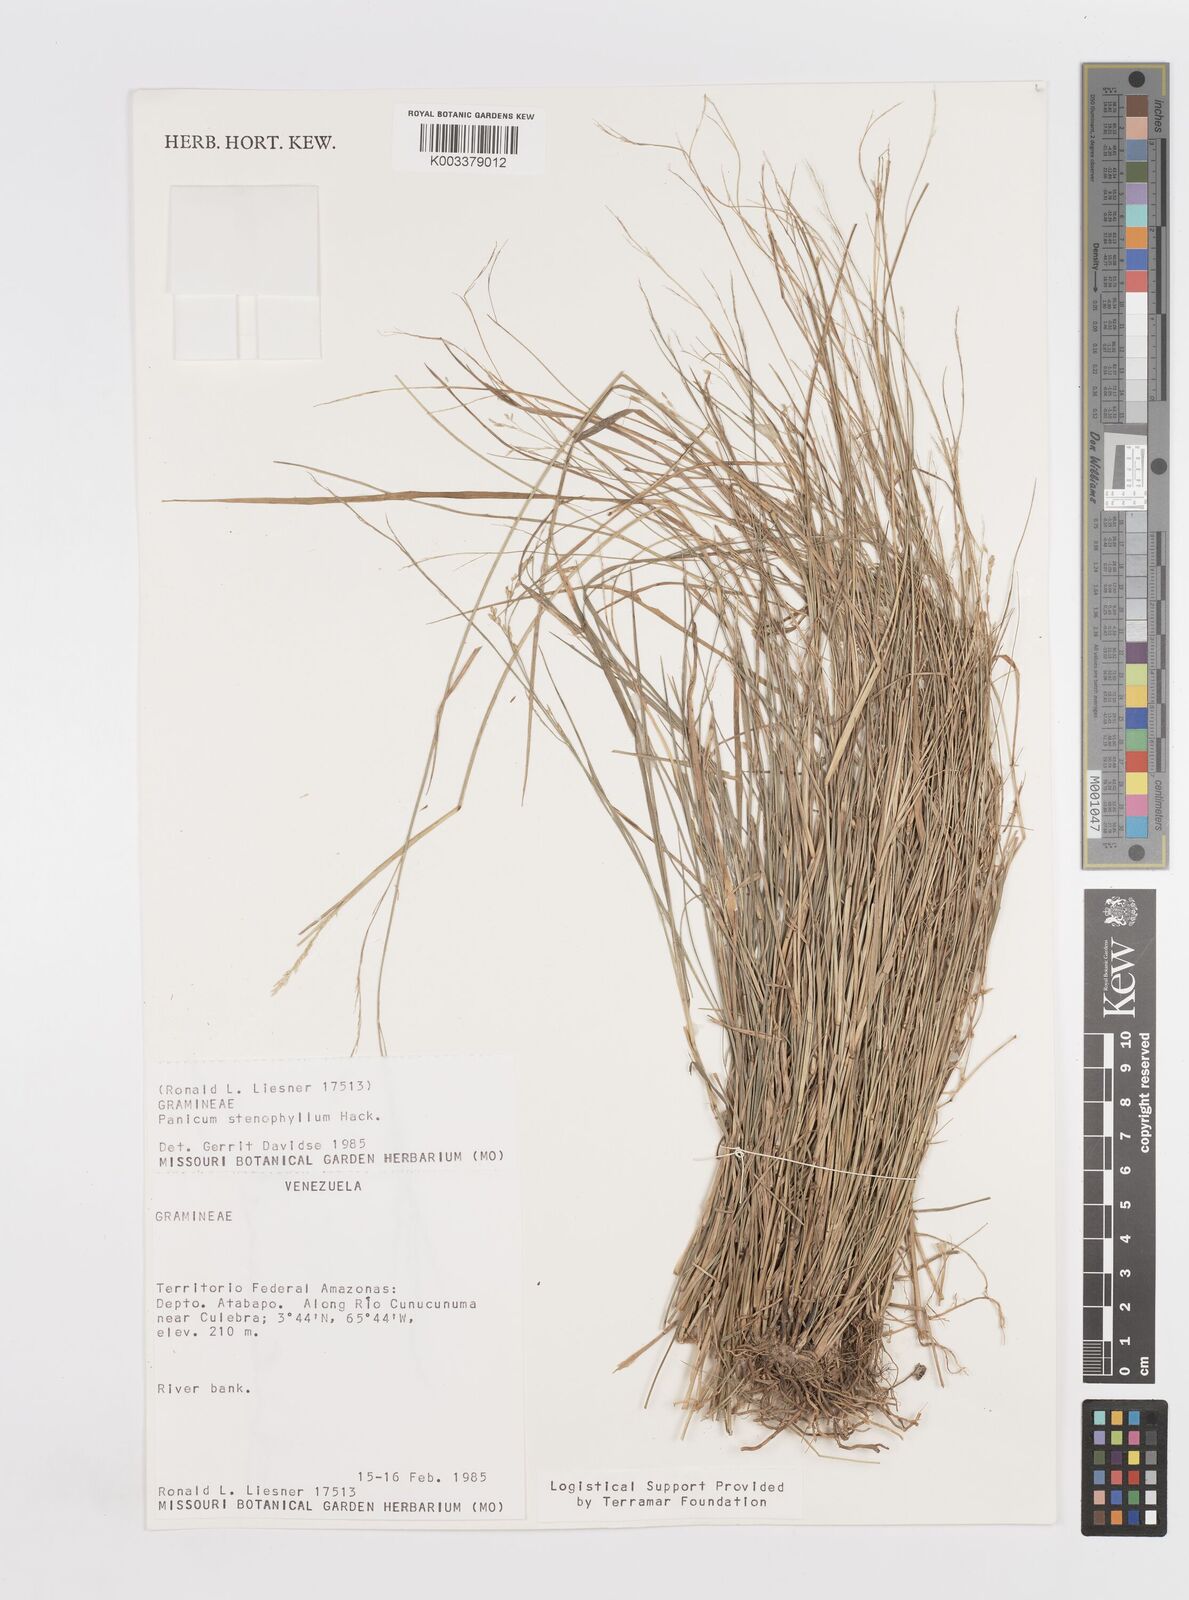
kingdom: Plantae
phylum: Tracheophyta
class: Liliopsida
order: Poales
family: Poaceae
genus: Steinchisma
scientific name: Steinchisma stenophyllum
